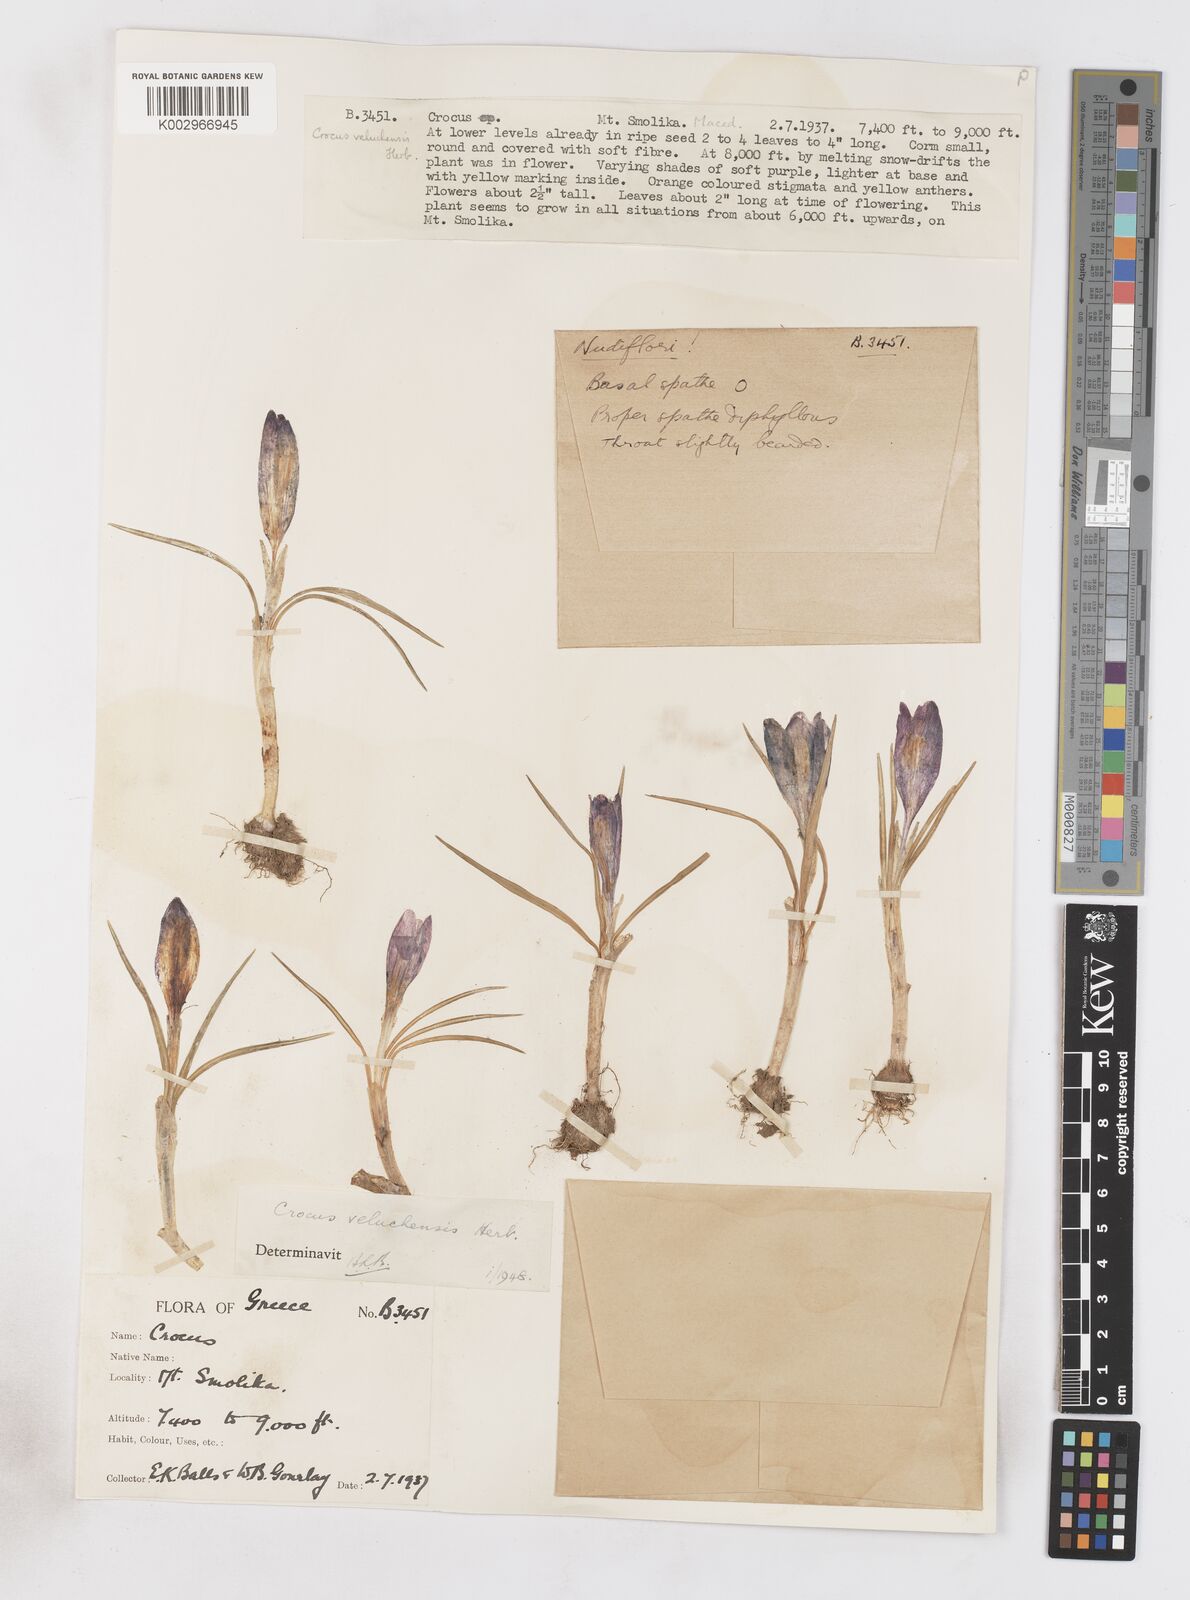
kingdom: Plantae
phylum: Tracheophyta
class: Liliopsida
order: Asparagales
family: Iridaceae
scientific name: Iridaceae
